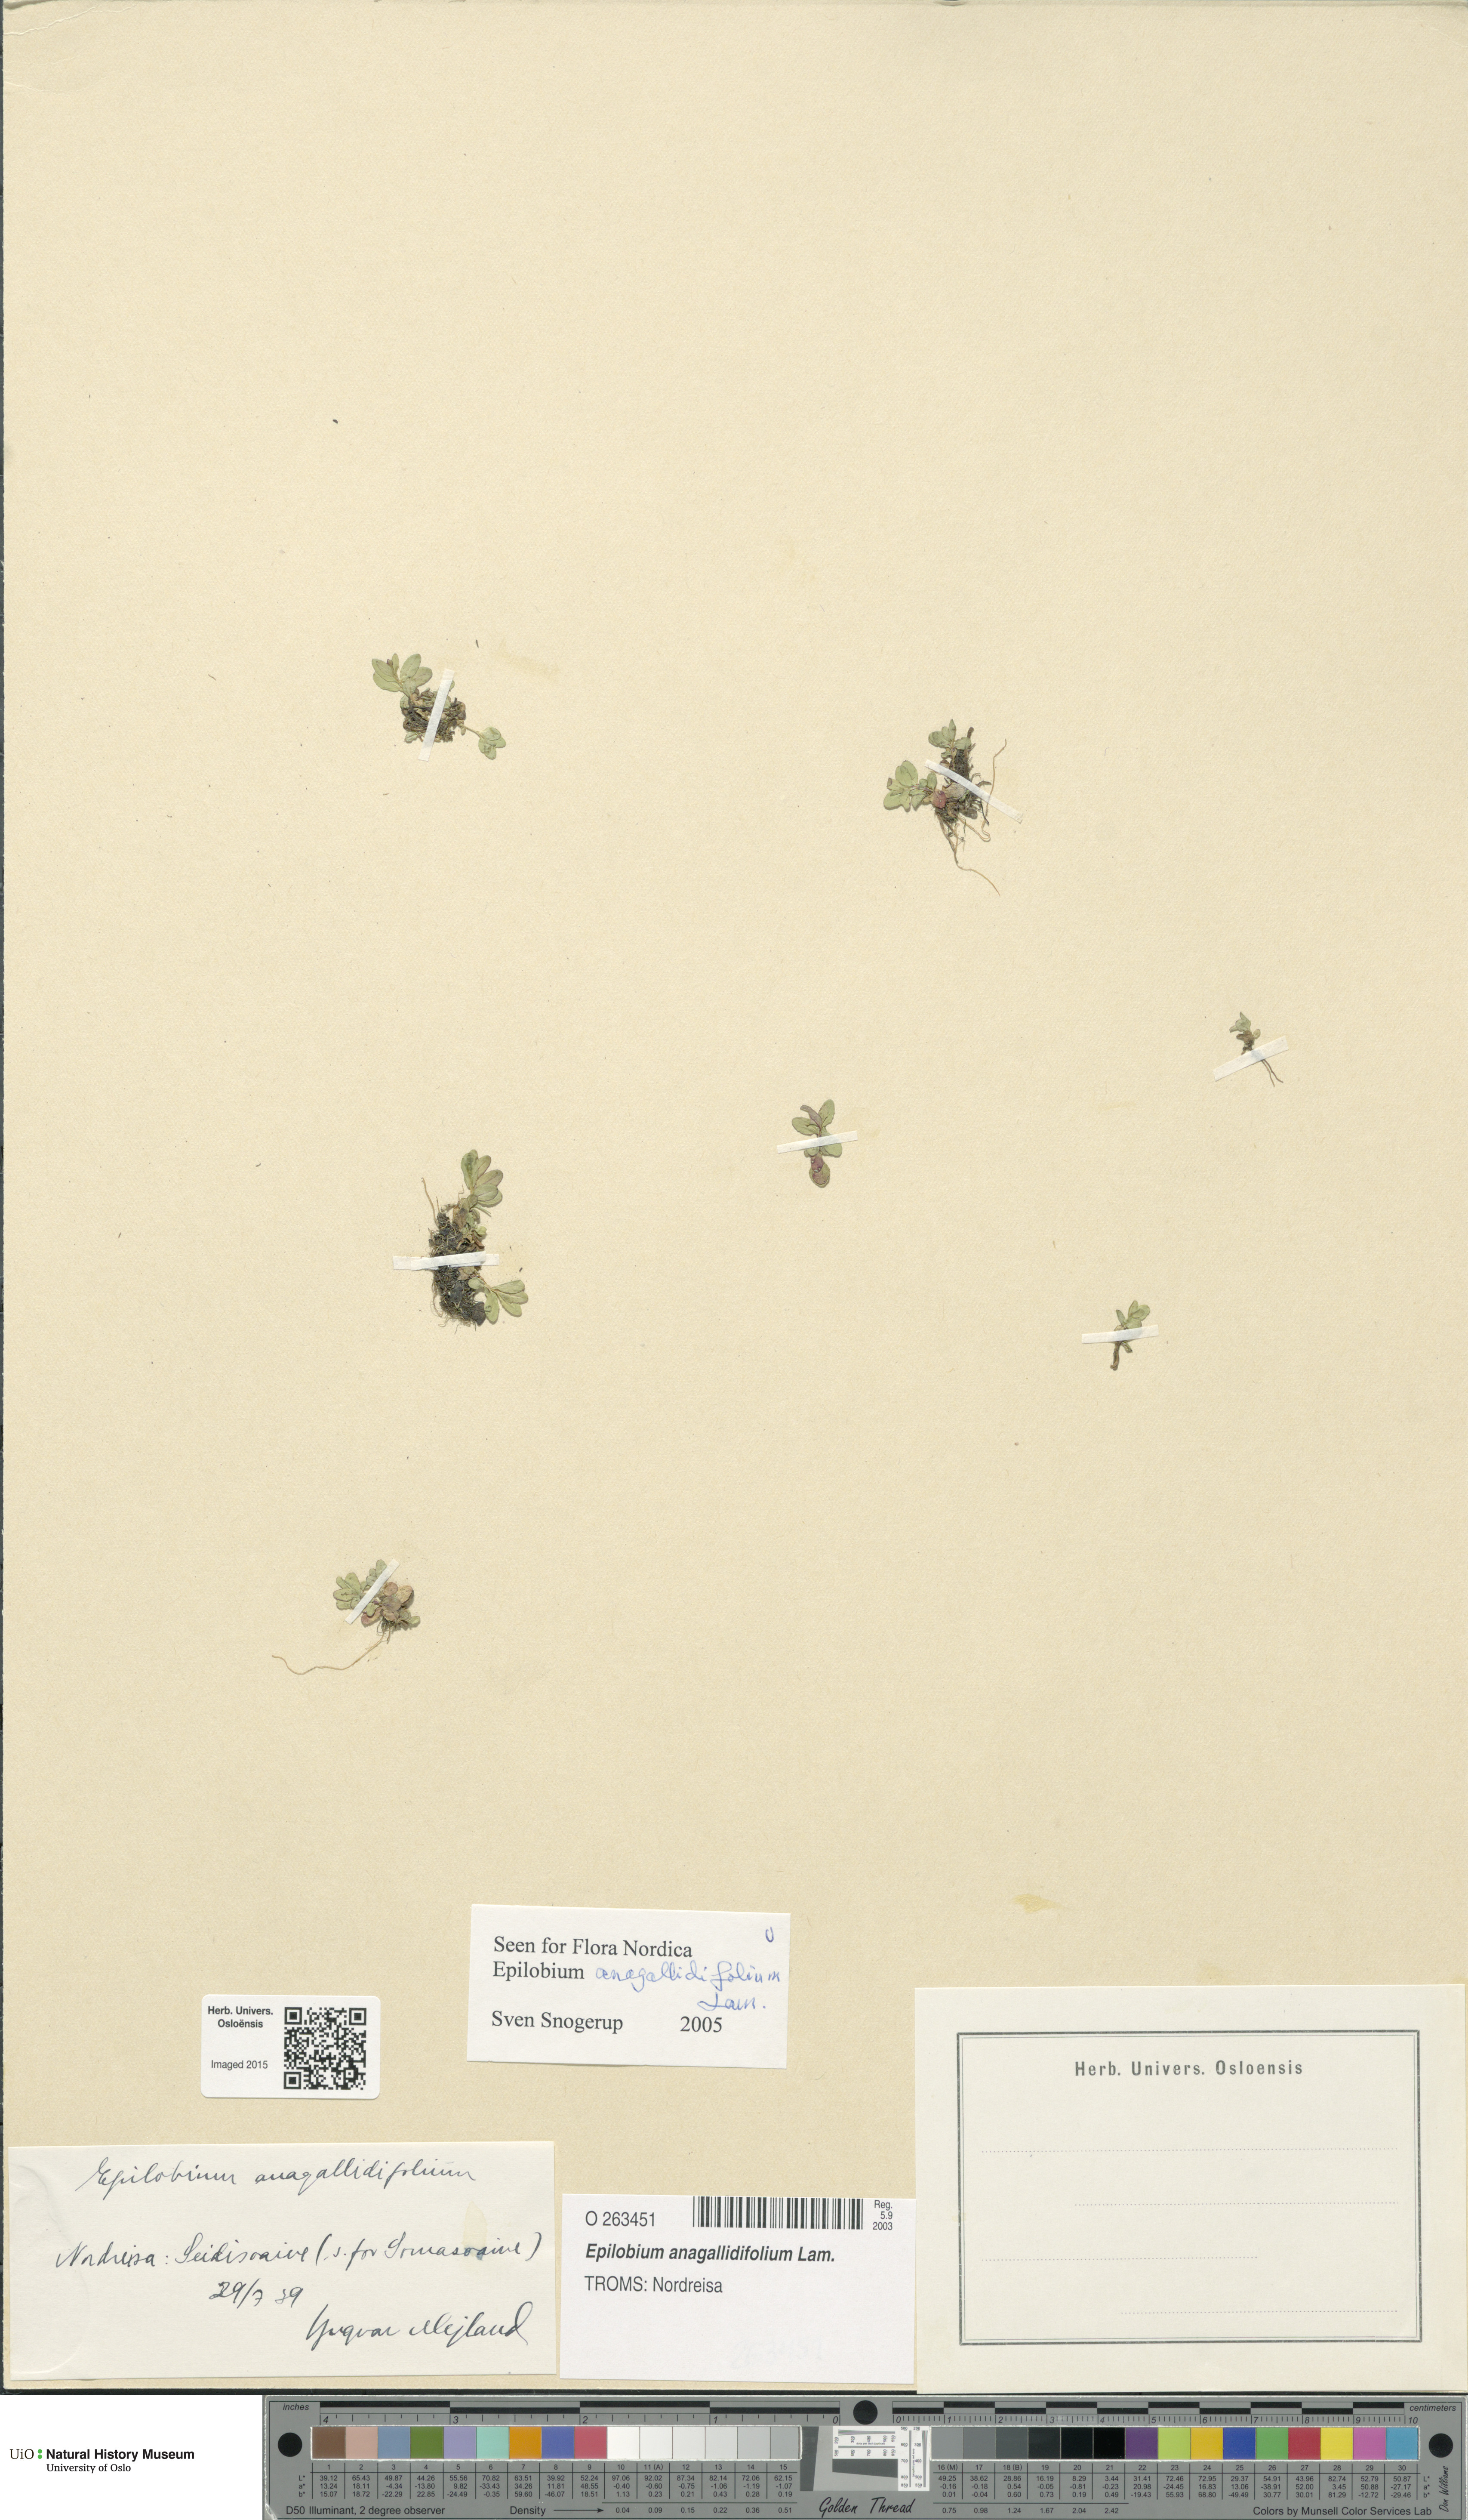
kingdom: Plantae
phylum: Tracheophyta
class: Magnoliopsida
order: Myrtales
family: Onagraceae
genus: Epilobium
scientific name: Epilobium anagallidifolium
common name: Alpine willowherb
